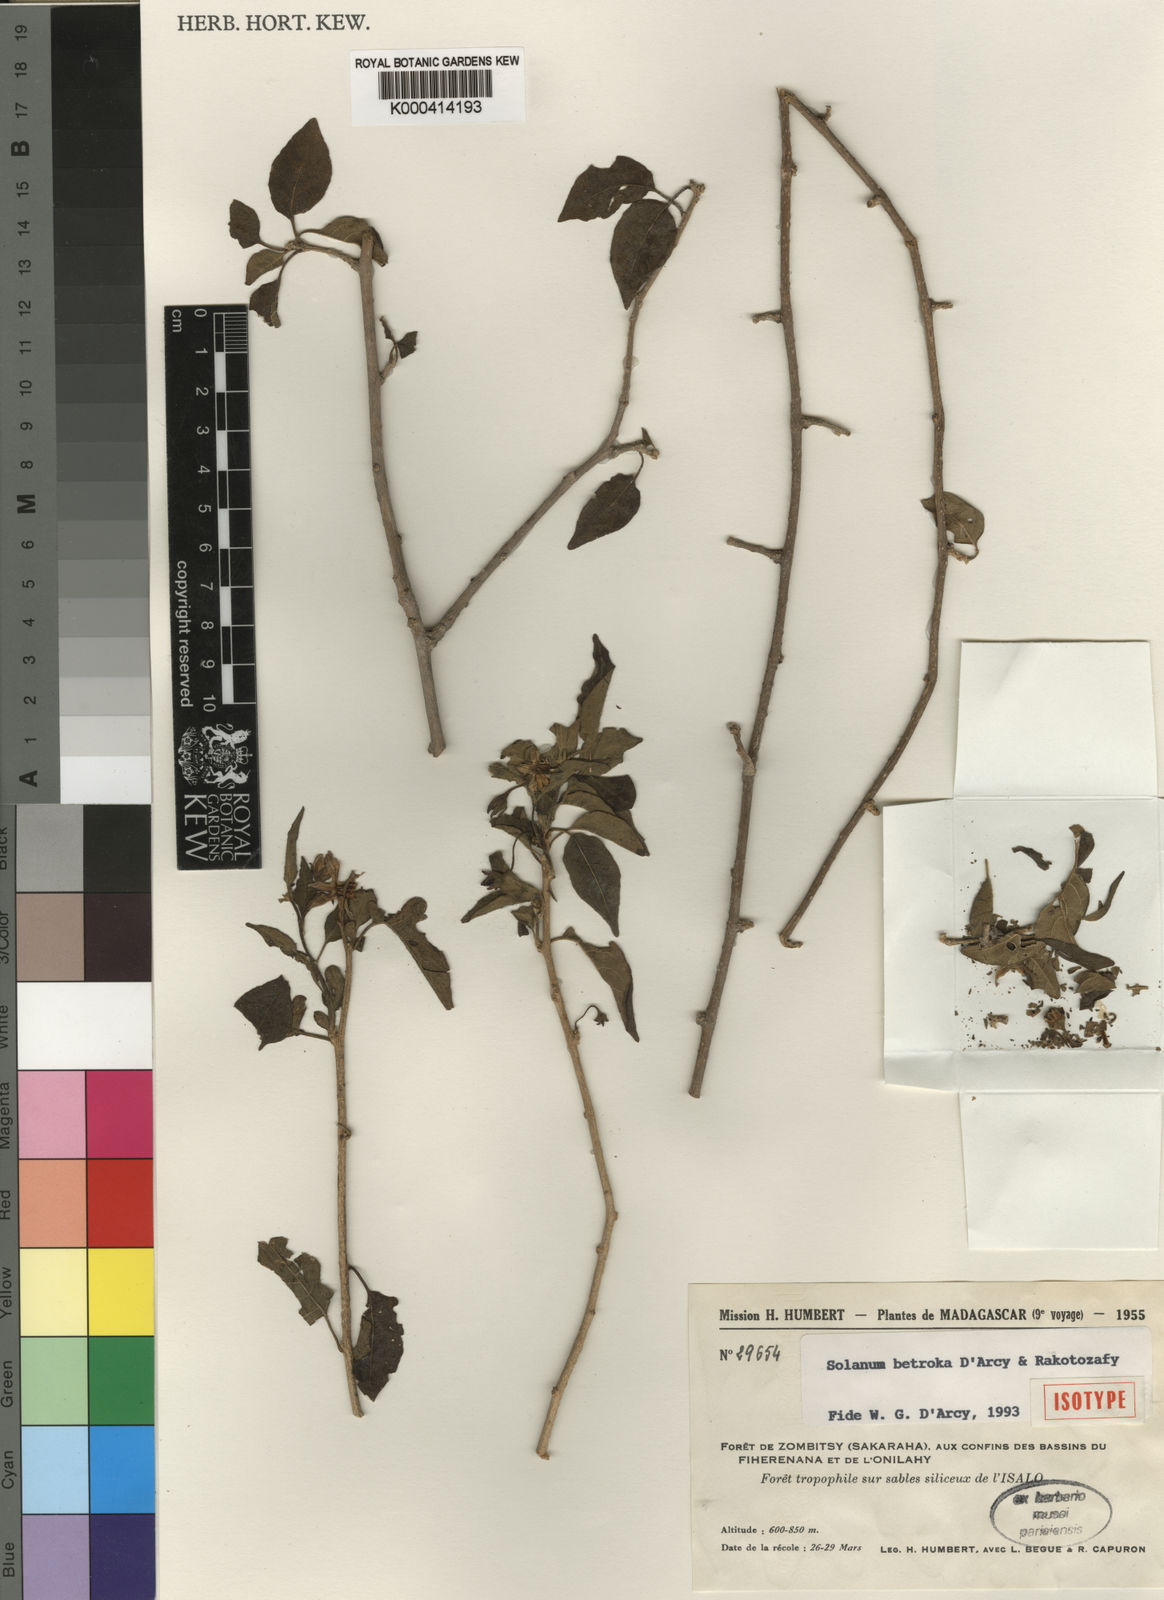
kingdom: Plantae
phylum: Tracheophyta
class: Magnoliopsida
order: Solanales
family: Solanaceae
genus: Solanum
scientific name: Solanum betroka
